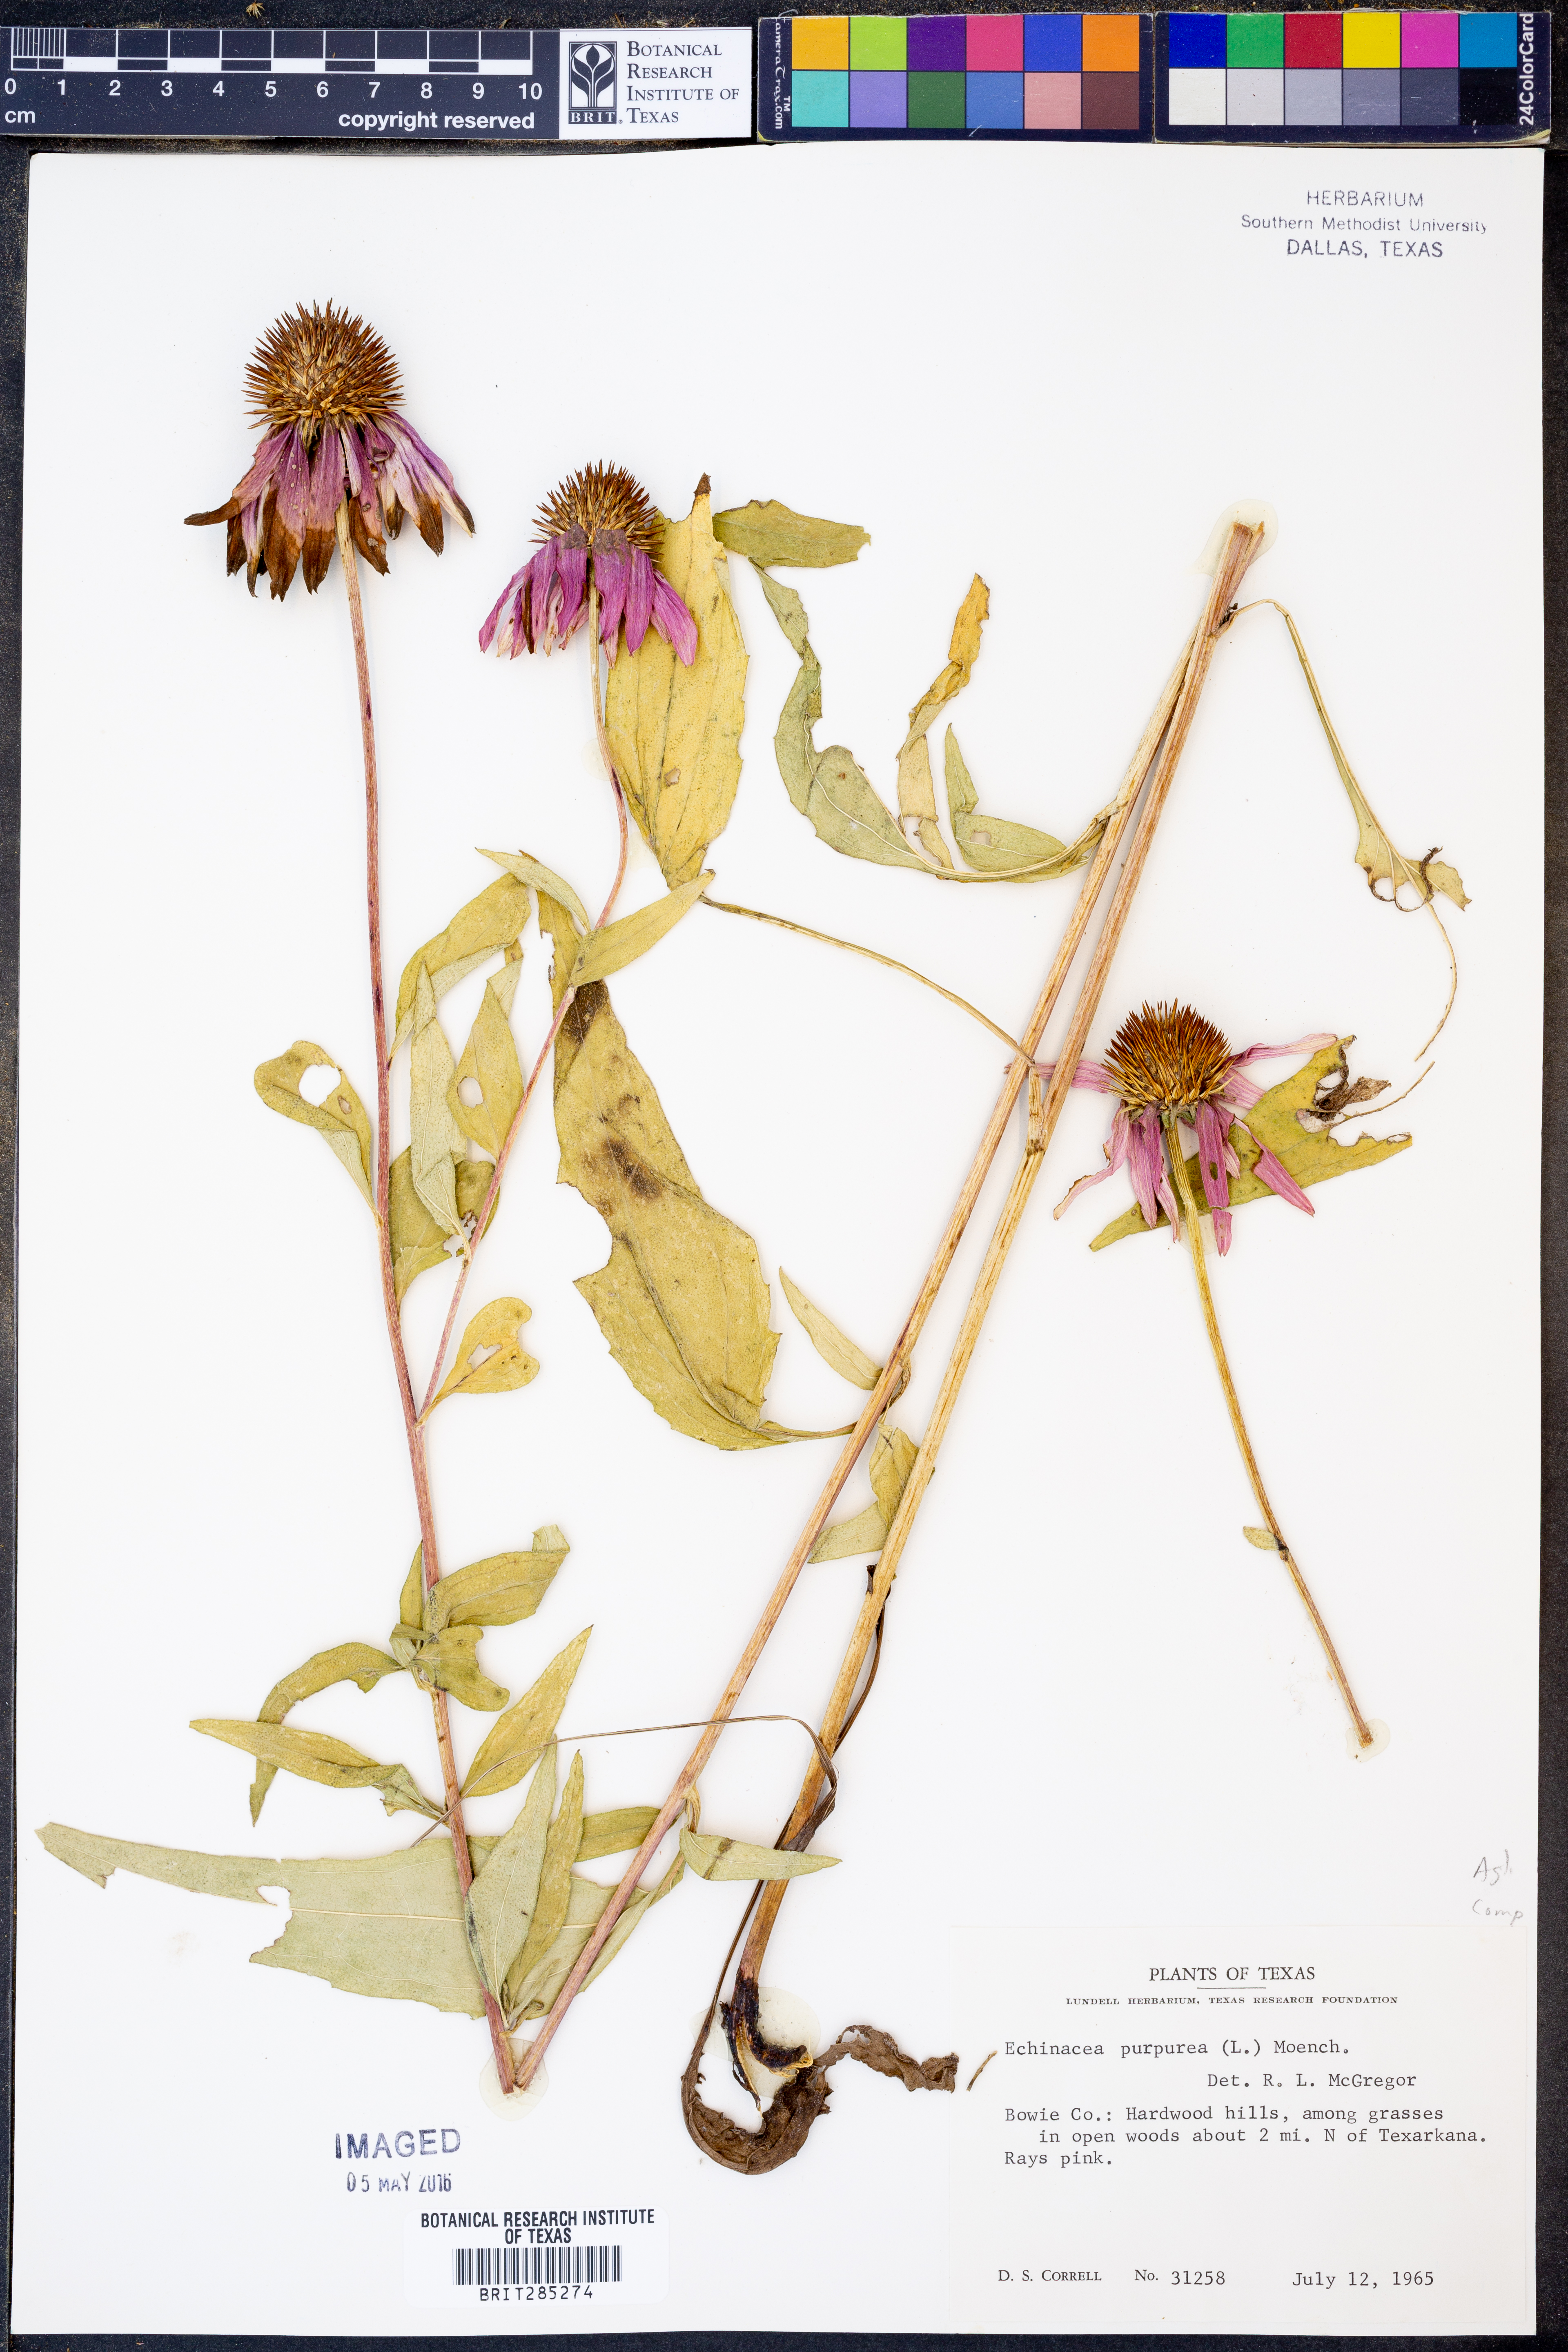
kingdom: Plantae
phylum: Tracheophyta
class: Magnoliopsida
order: Asterales
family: Asteraceae
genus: Echinacea
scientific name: Echinacea purpurea
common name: Broad-leaved purple coneflower
